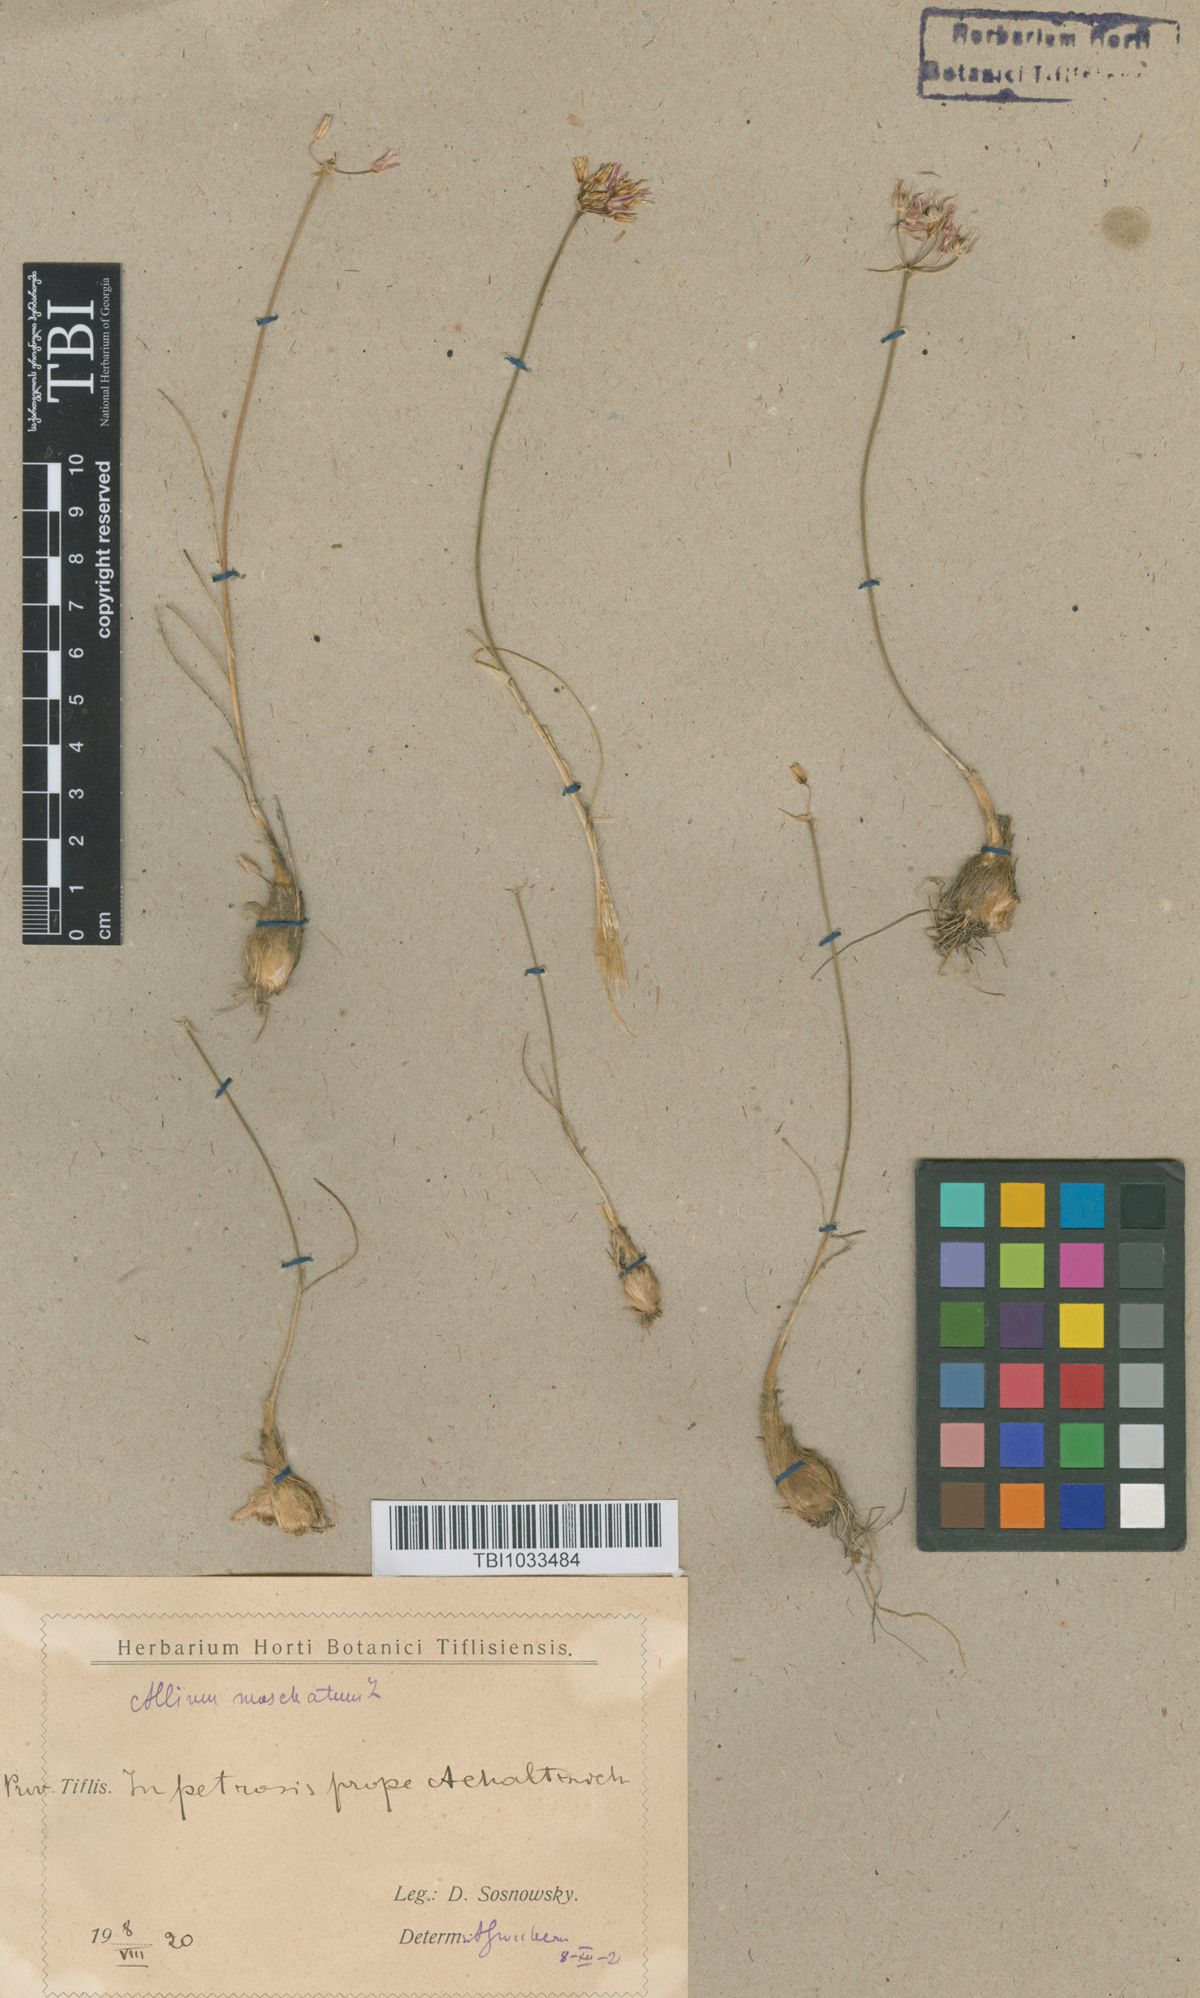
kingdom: Plantae
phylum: Tracheophyta
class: Liliopsida
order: Asparagales
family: Amaryllidaceae
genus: Allium
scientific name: Allium moschatum
